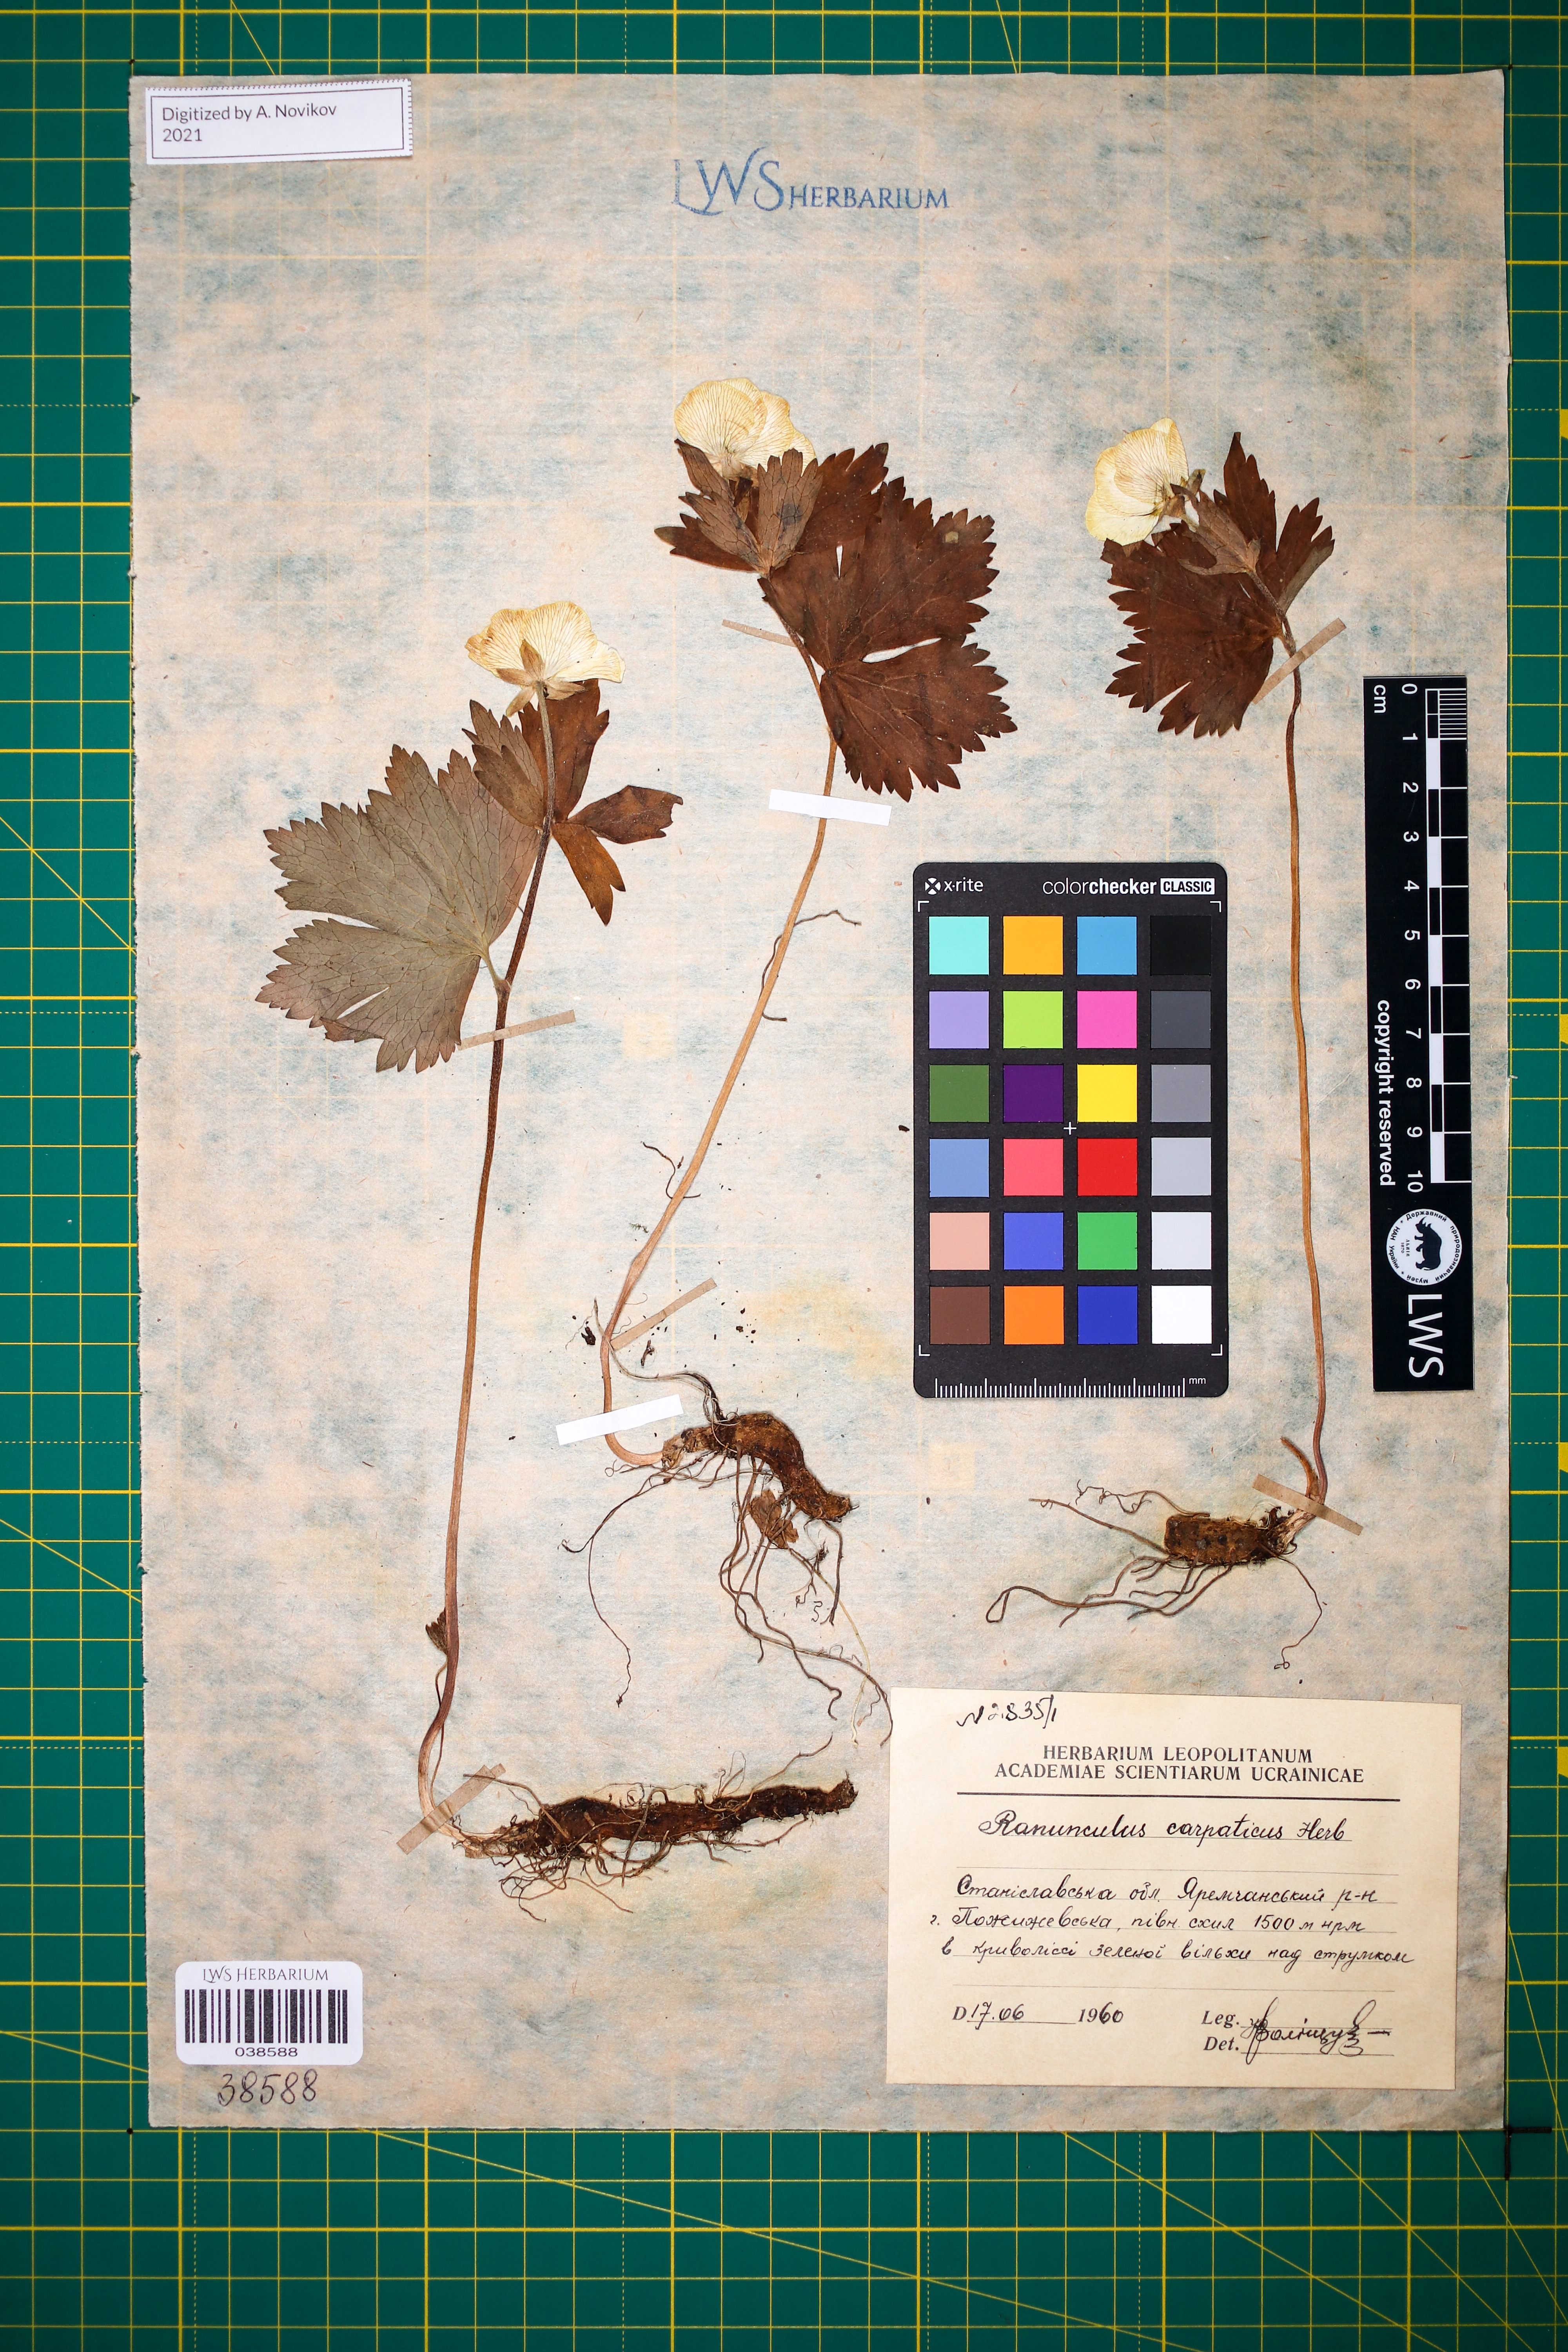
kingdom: Plantae
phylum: Tracheophyta
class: Magnoliopsida
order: Ranunculales
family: Ranunculaceae
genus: Ranunculus
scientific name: Ranunculus carpaticus
